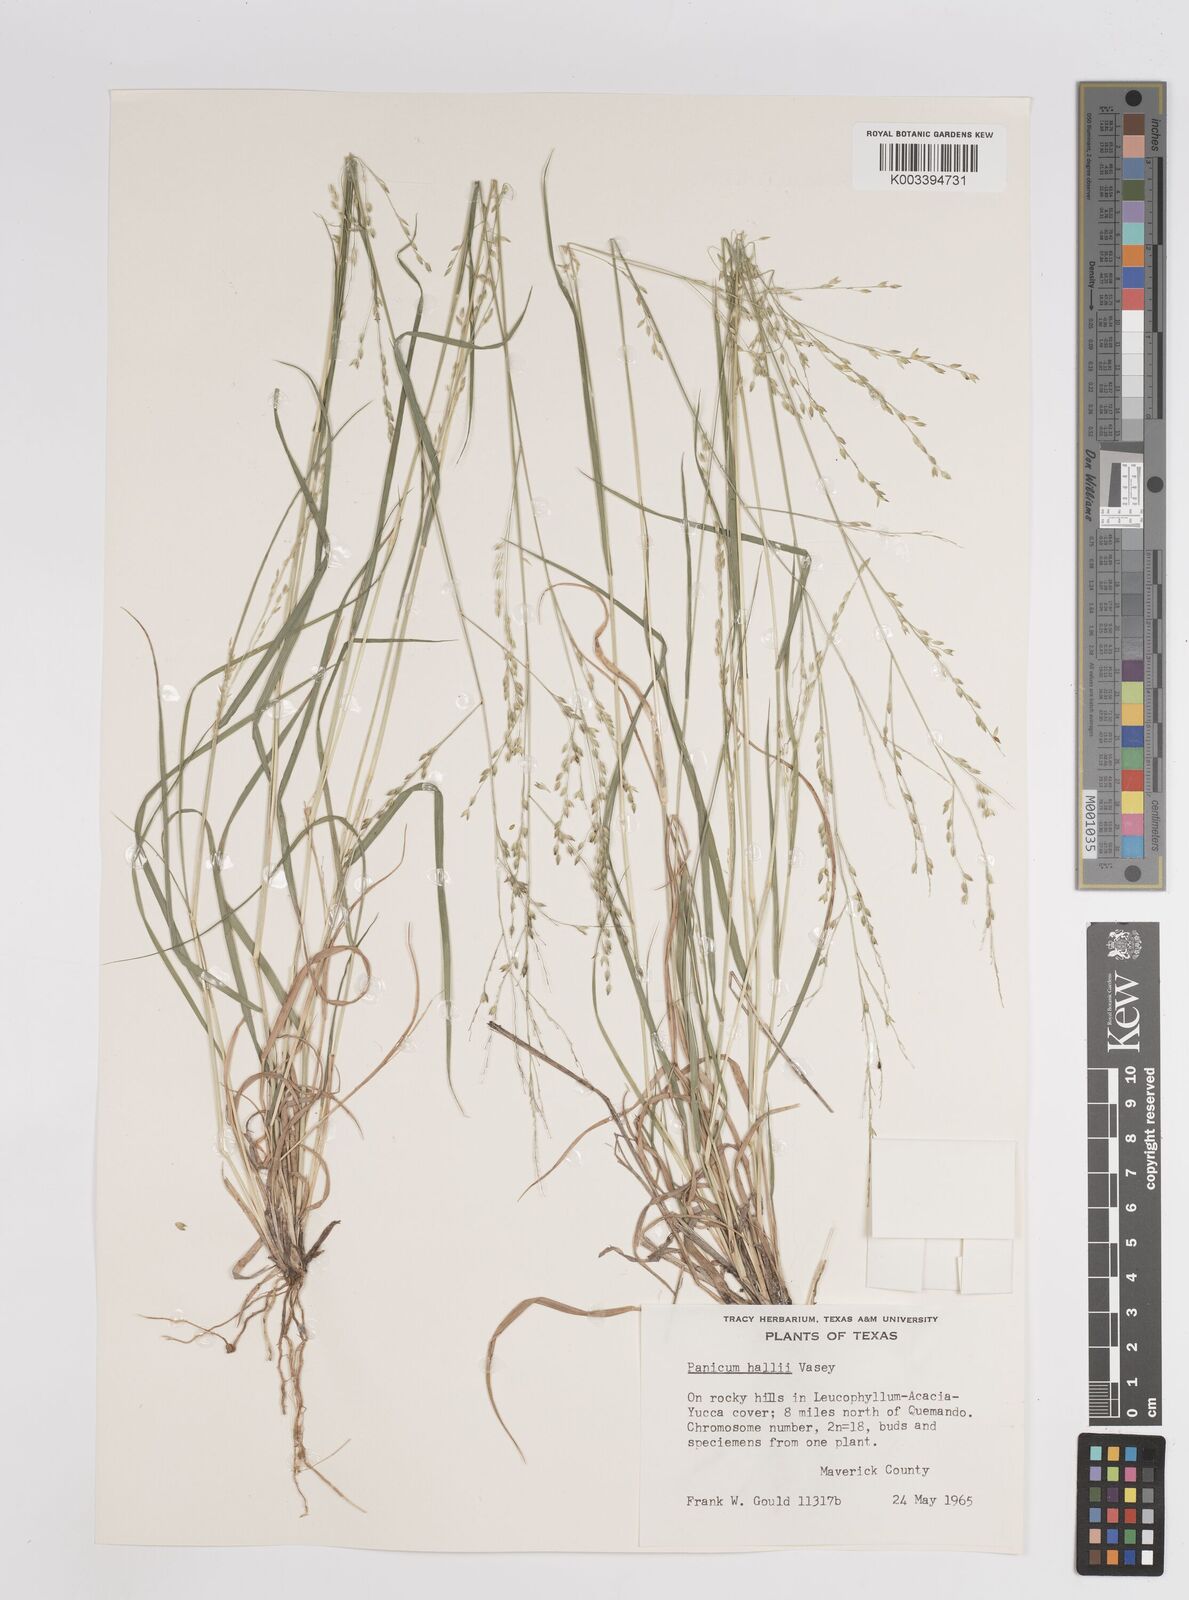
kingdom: Plantae
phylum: Tracheophyta
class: Liliopsida
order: Poales
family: Poaceae
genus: Panicum
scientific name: Panicum hallii
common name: Hall's witchgrass
